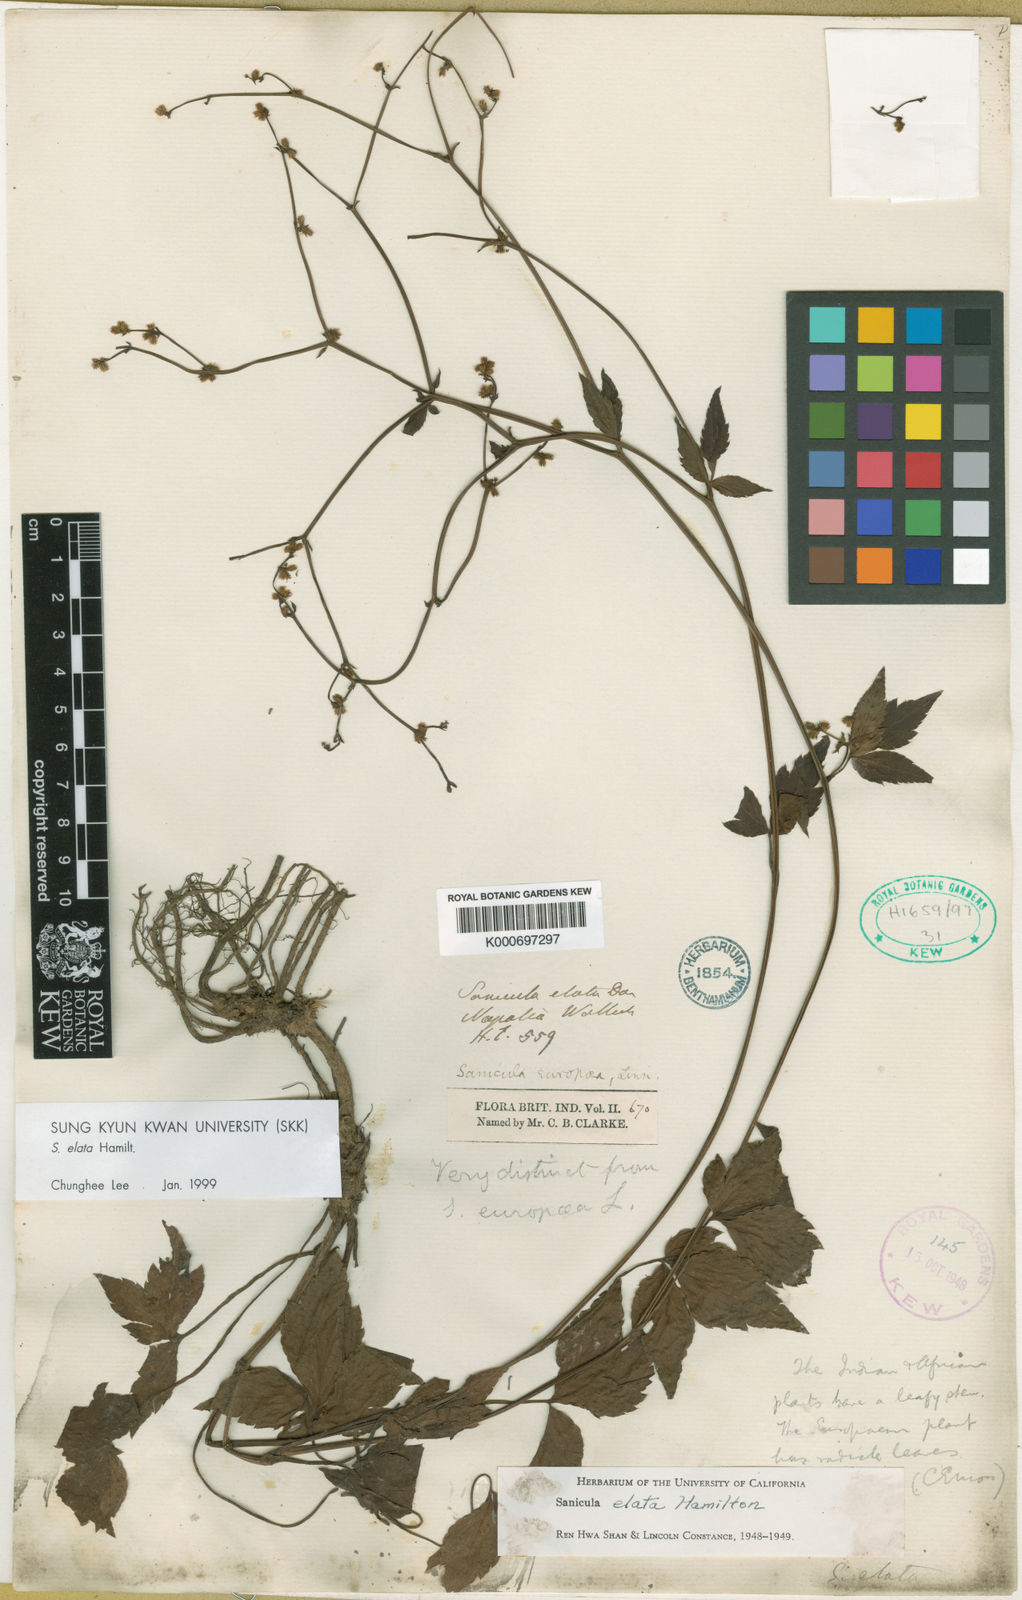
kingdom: Plantae
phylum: Tracheophyta
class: Magnoliopsida
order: Apiales
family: Apiaceae
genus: Sanicula
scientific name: Sanicula elata
